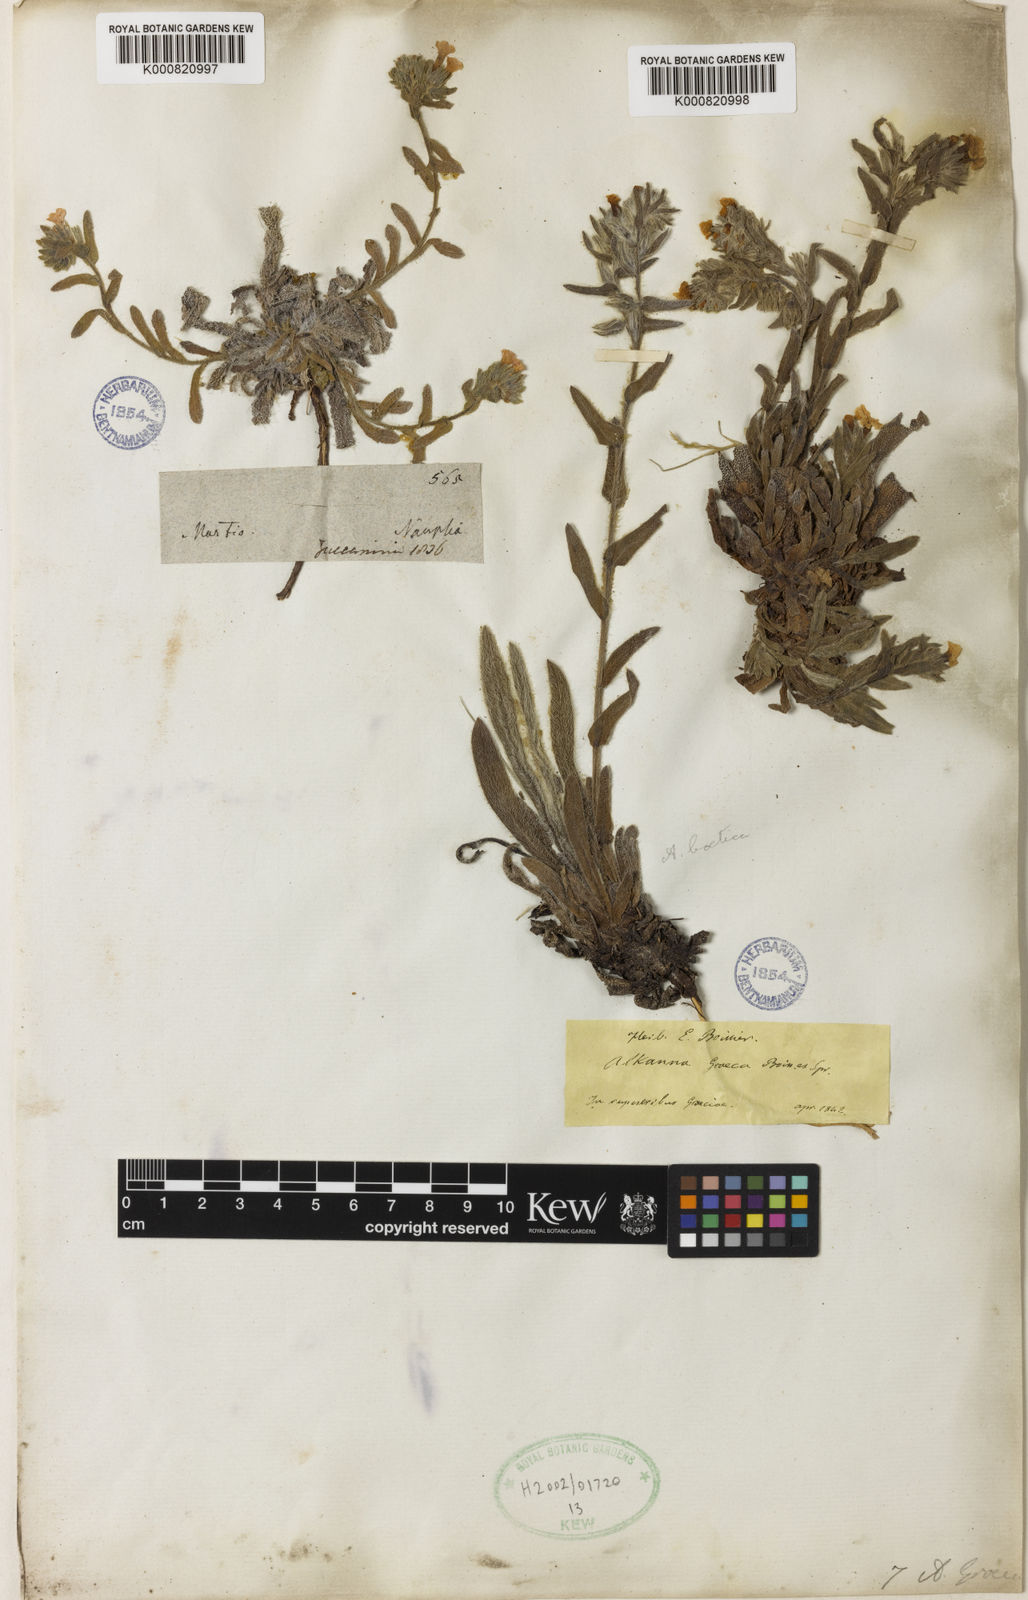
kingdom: Plantae
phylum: Tracheophyta
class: Magnoliopsida
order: Boraginales
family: Boraginaceae
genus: Alkanna
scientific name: Alkanna graeca
